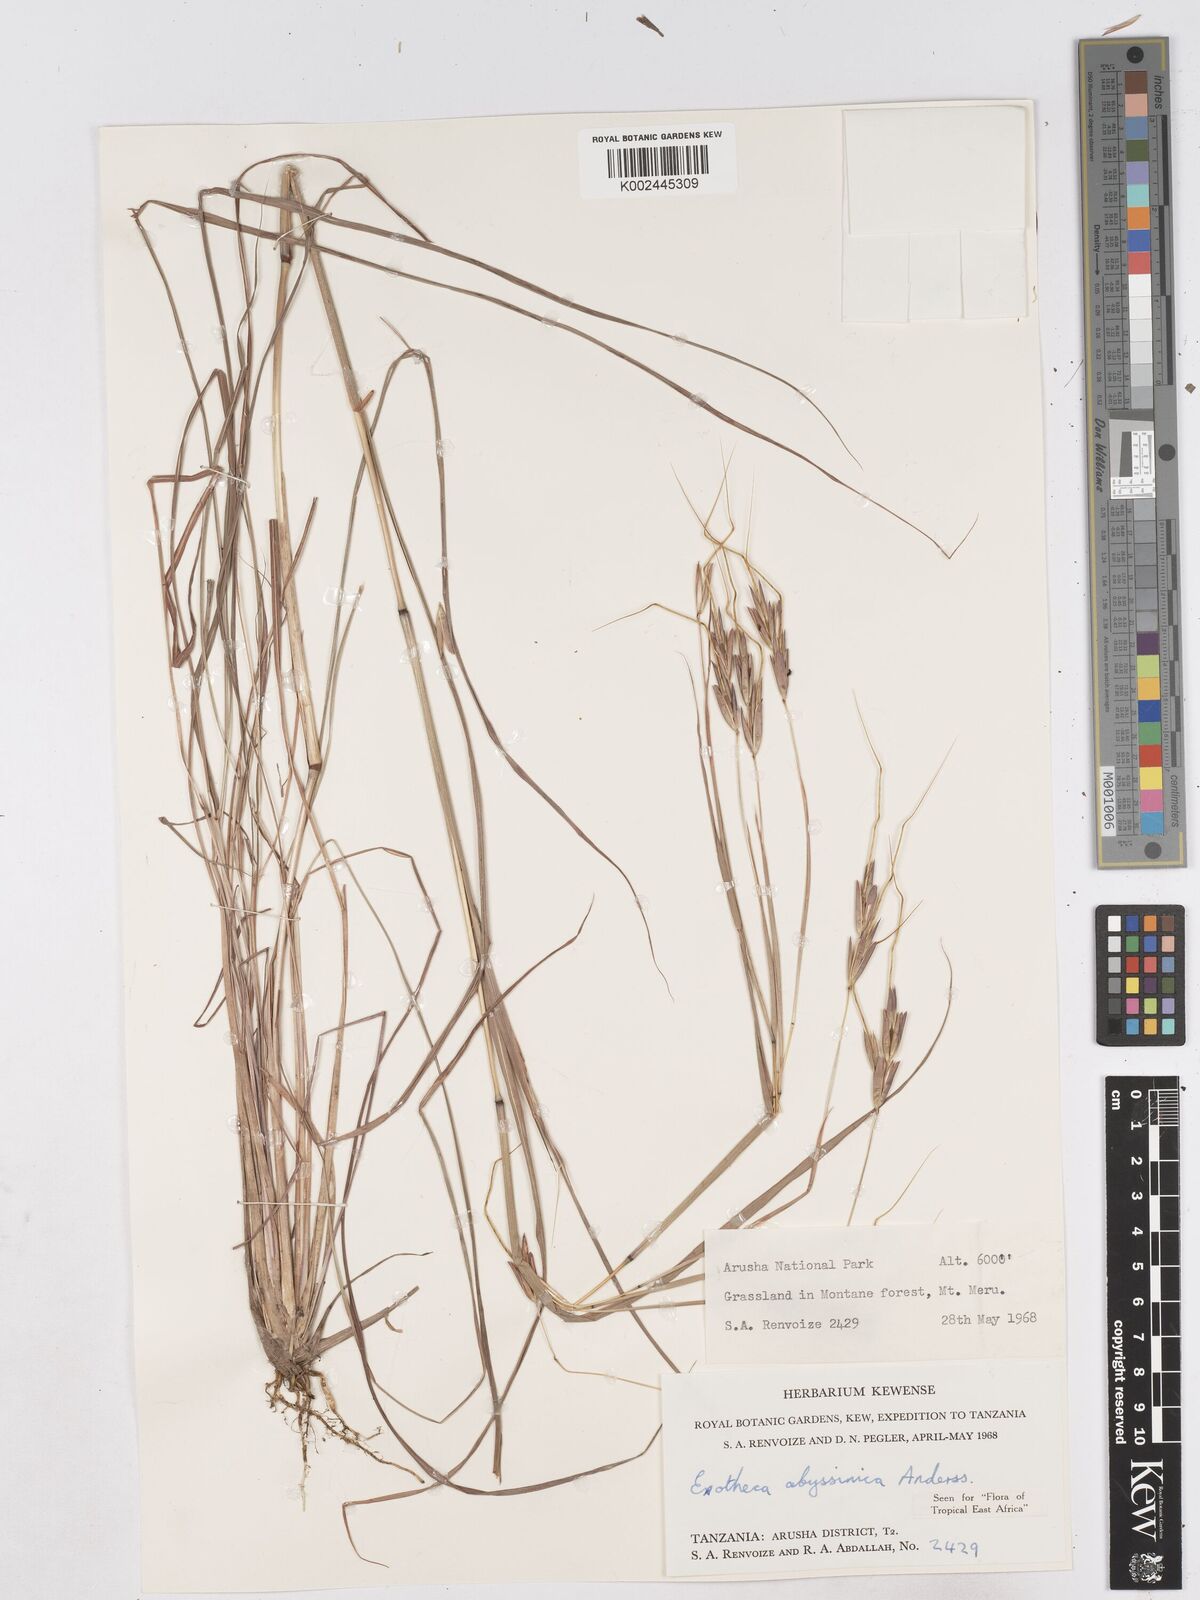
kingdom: Plantae
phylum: Tracheophyta
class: Liliopsida
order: Poales
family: Poaceae
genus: Exotheca
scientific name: Exotheca abyssinica
